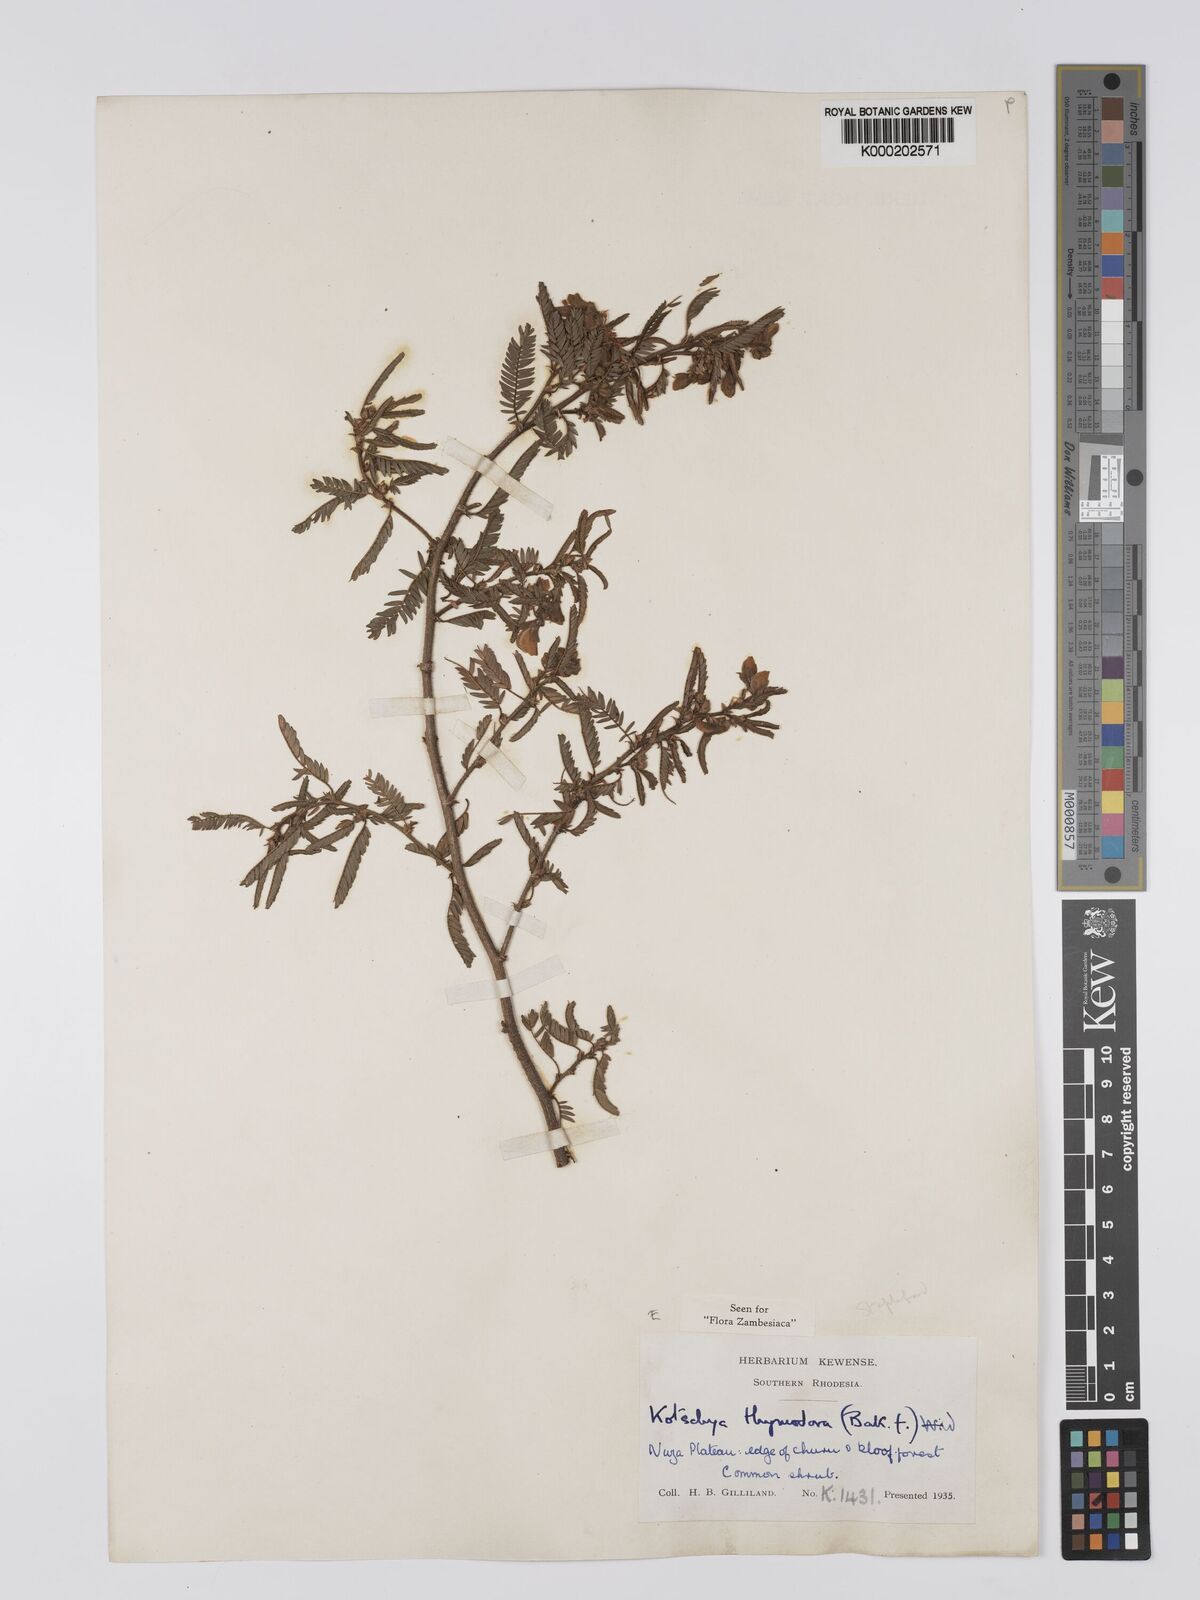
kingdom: Plantae
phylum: Tracheophyta
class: Magnoliopsida
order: Fabales
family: Fabaceae
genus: Kotschya
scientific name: Kotschya thymodora
